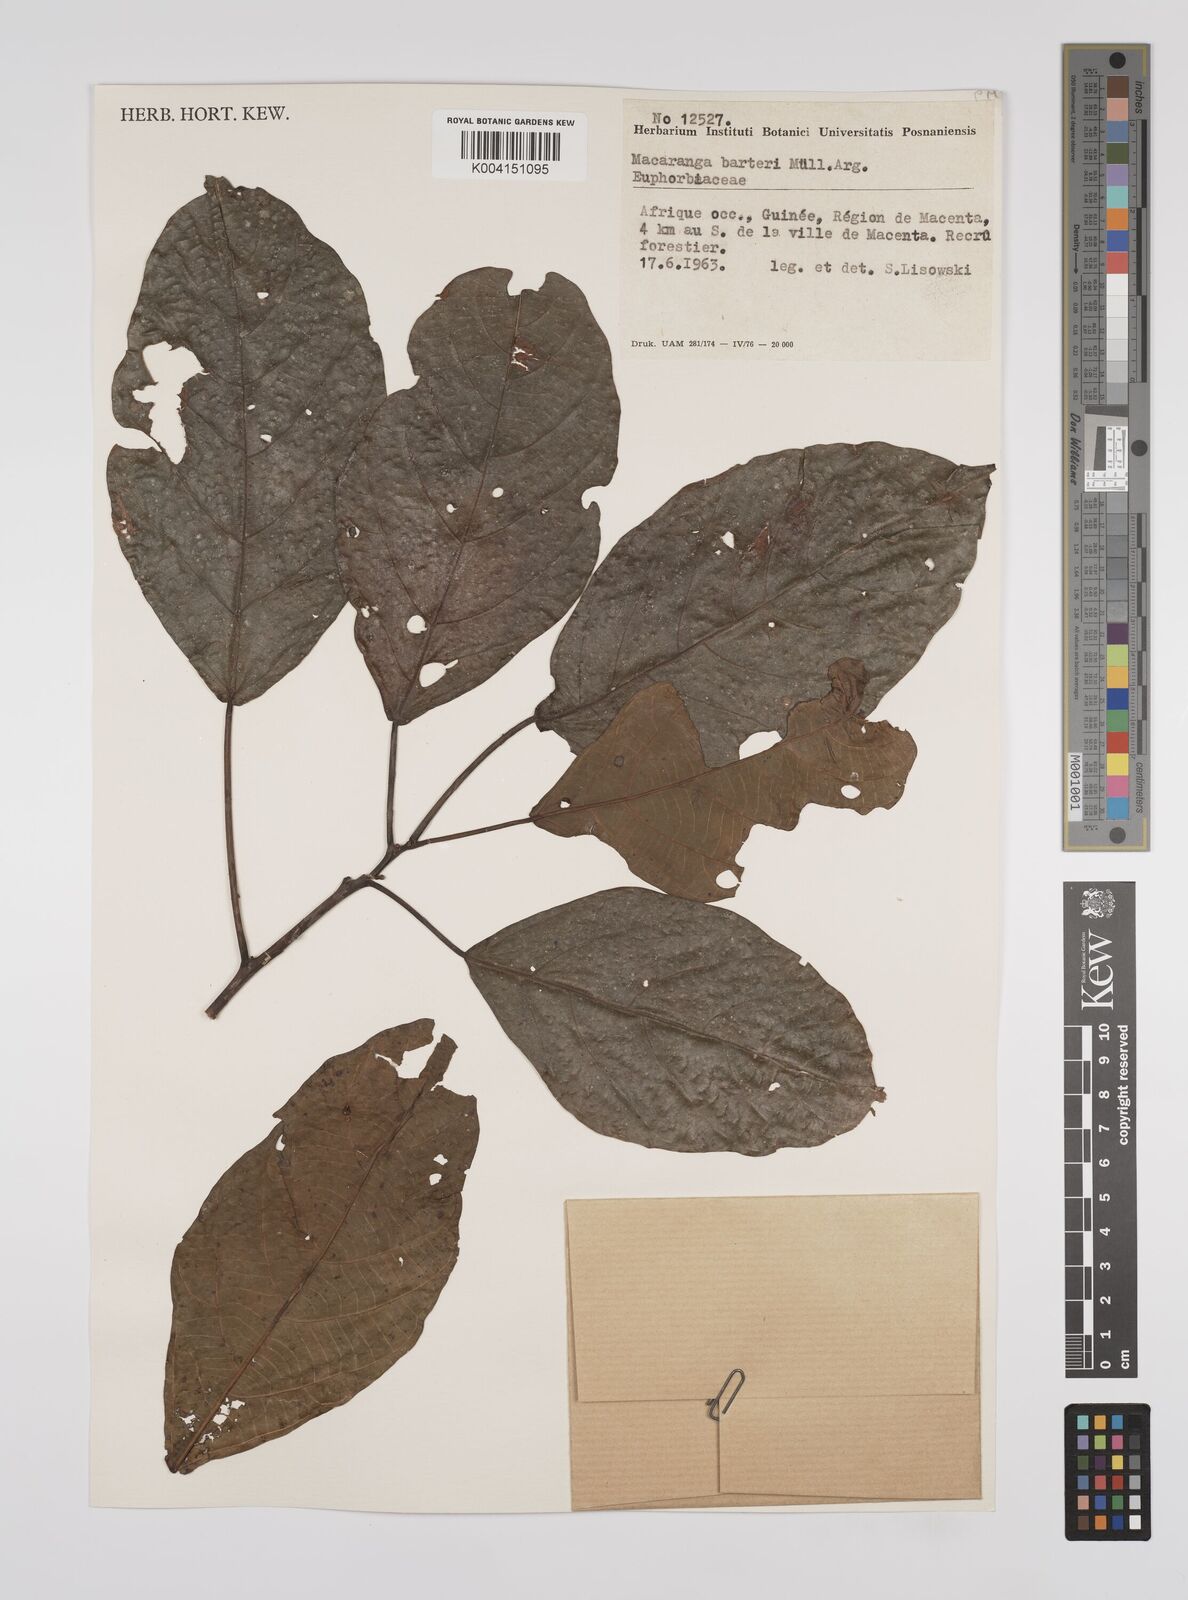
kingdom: Plantae
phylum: Tracheophyta
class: Magnoliopsida
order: Malpighiales
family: Euphorbiaceae
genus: Macaranga
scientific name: Macaranga barteri
